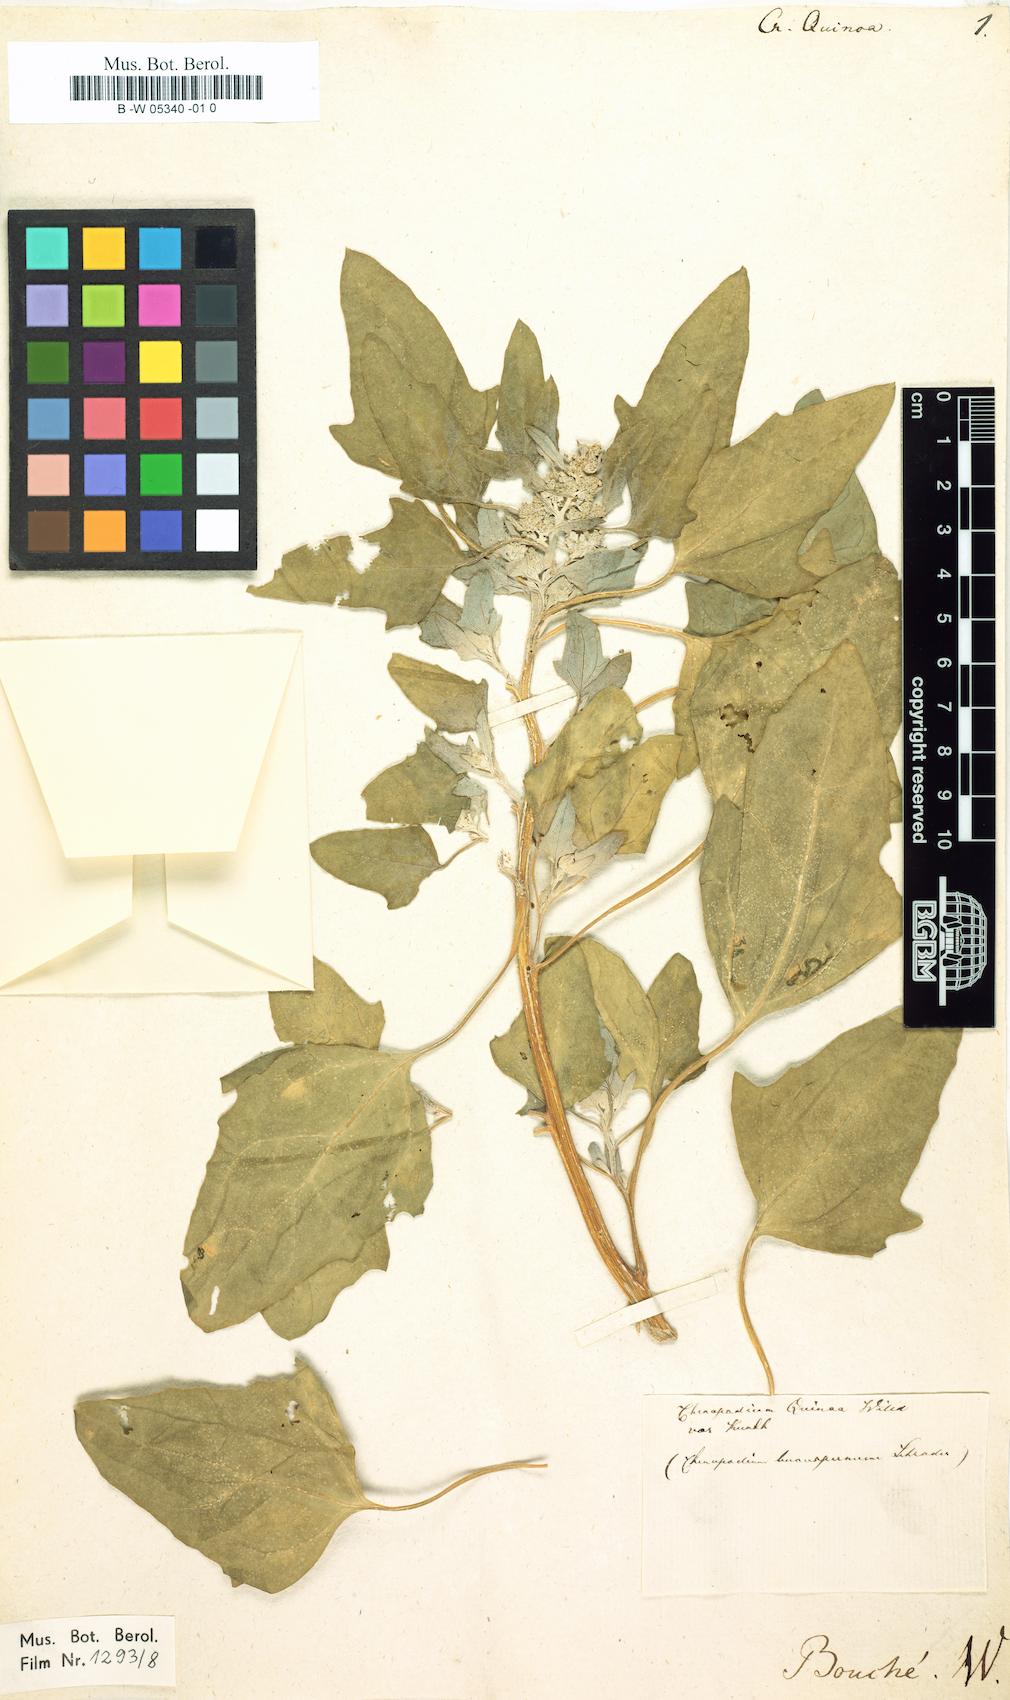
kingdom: Plantae
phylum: Tracheophyta
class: Magnoliopsida
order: Caryophyllales
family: Amaranthaceae
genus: Chenopodium
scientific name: Chenopodium quinoa
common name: Quinoa
